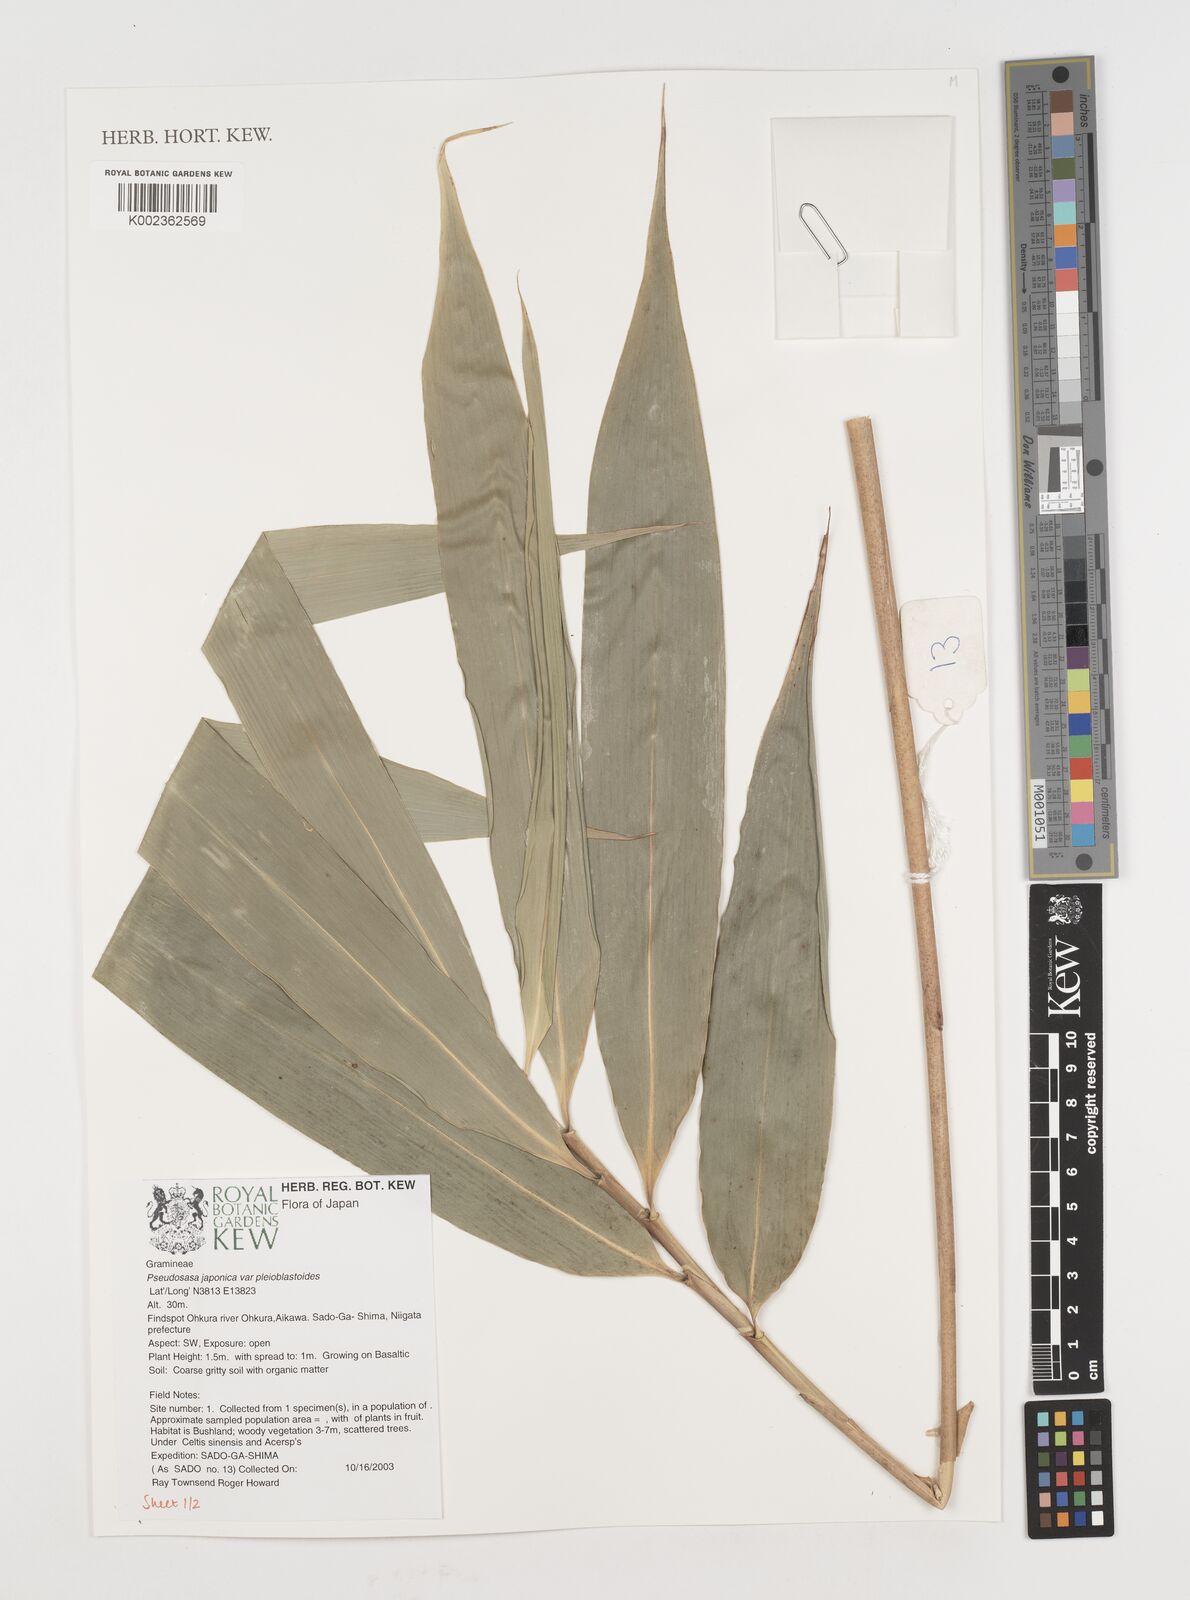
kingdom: Plantae
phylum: Tracheophyta
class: Liliopsida
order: Poales
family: Poaceae
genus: Pseudosasa
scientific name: Pseudosasa japonica
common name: Arrow bamboo
